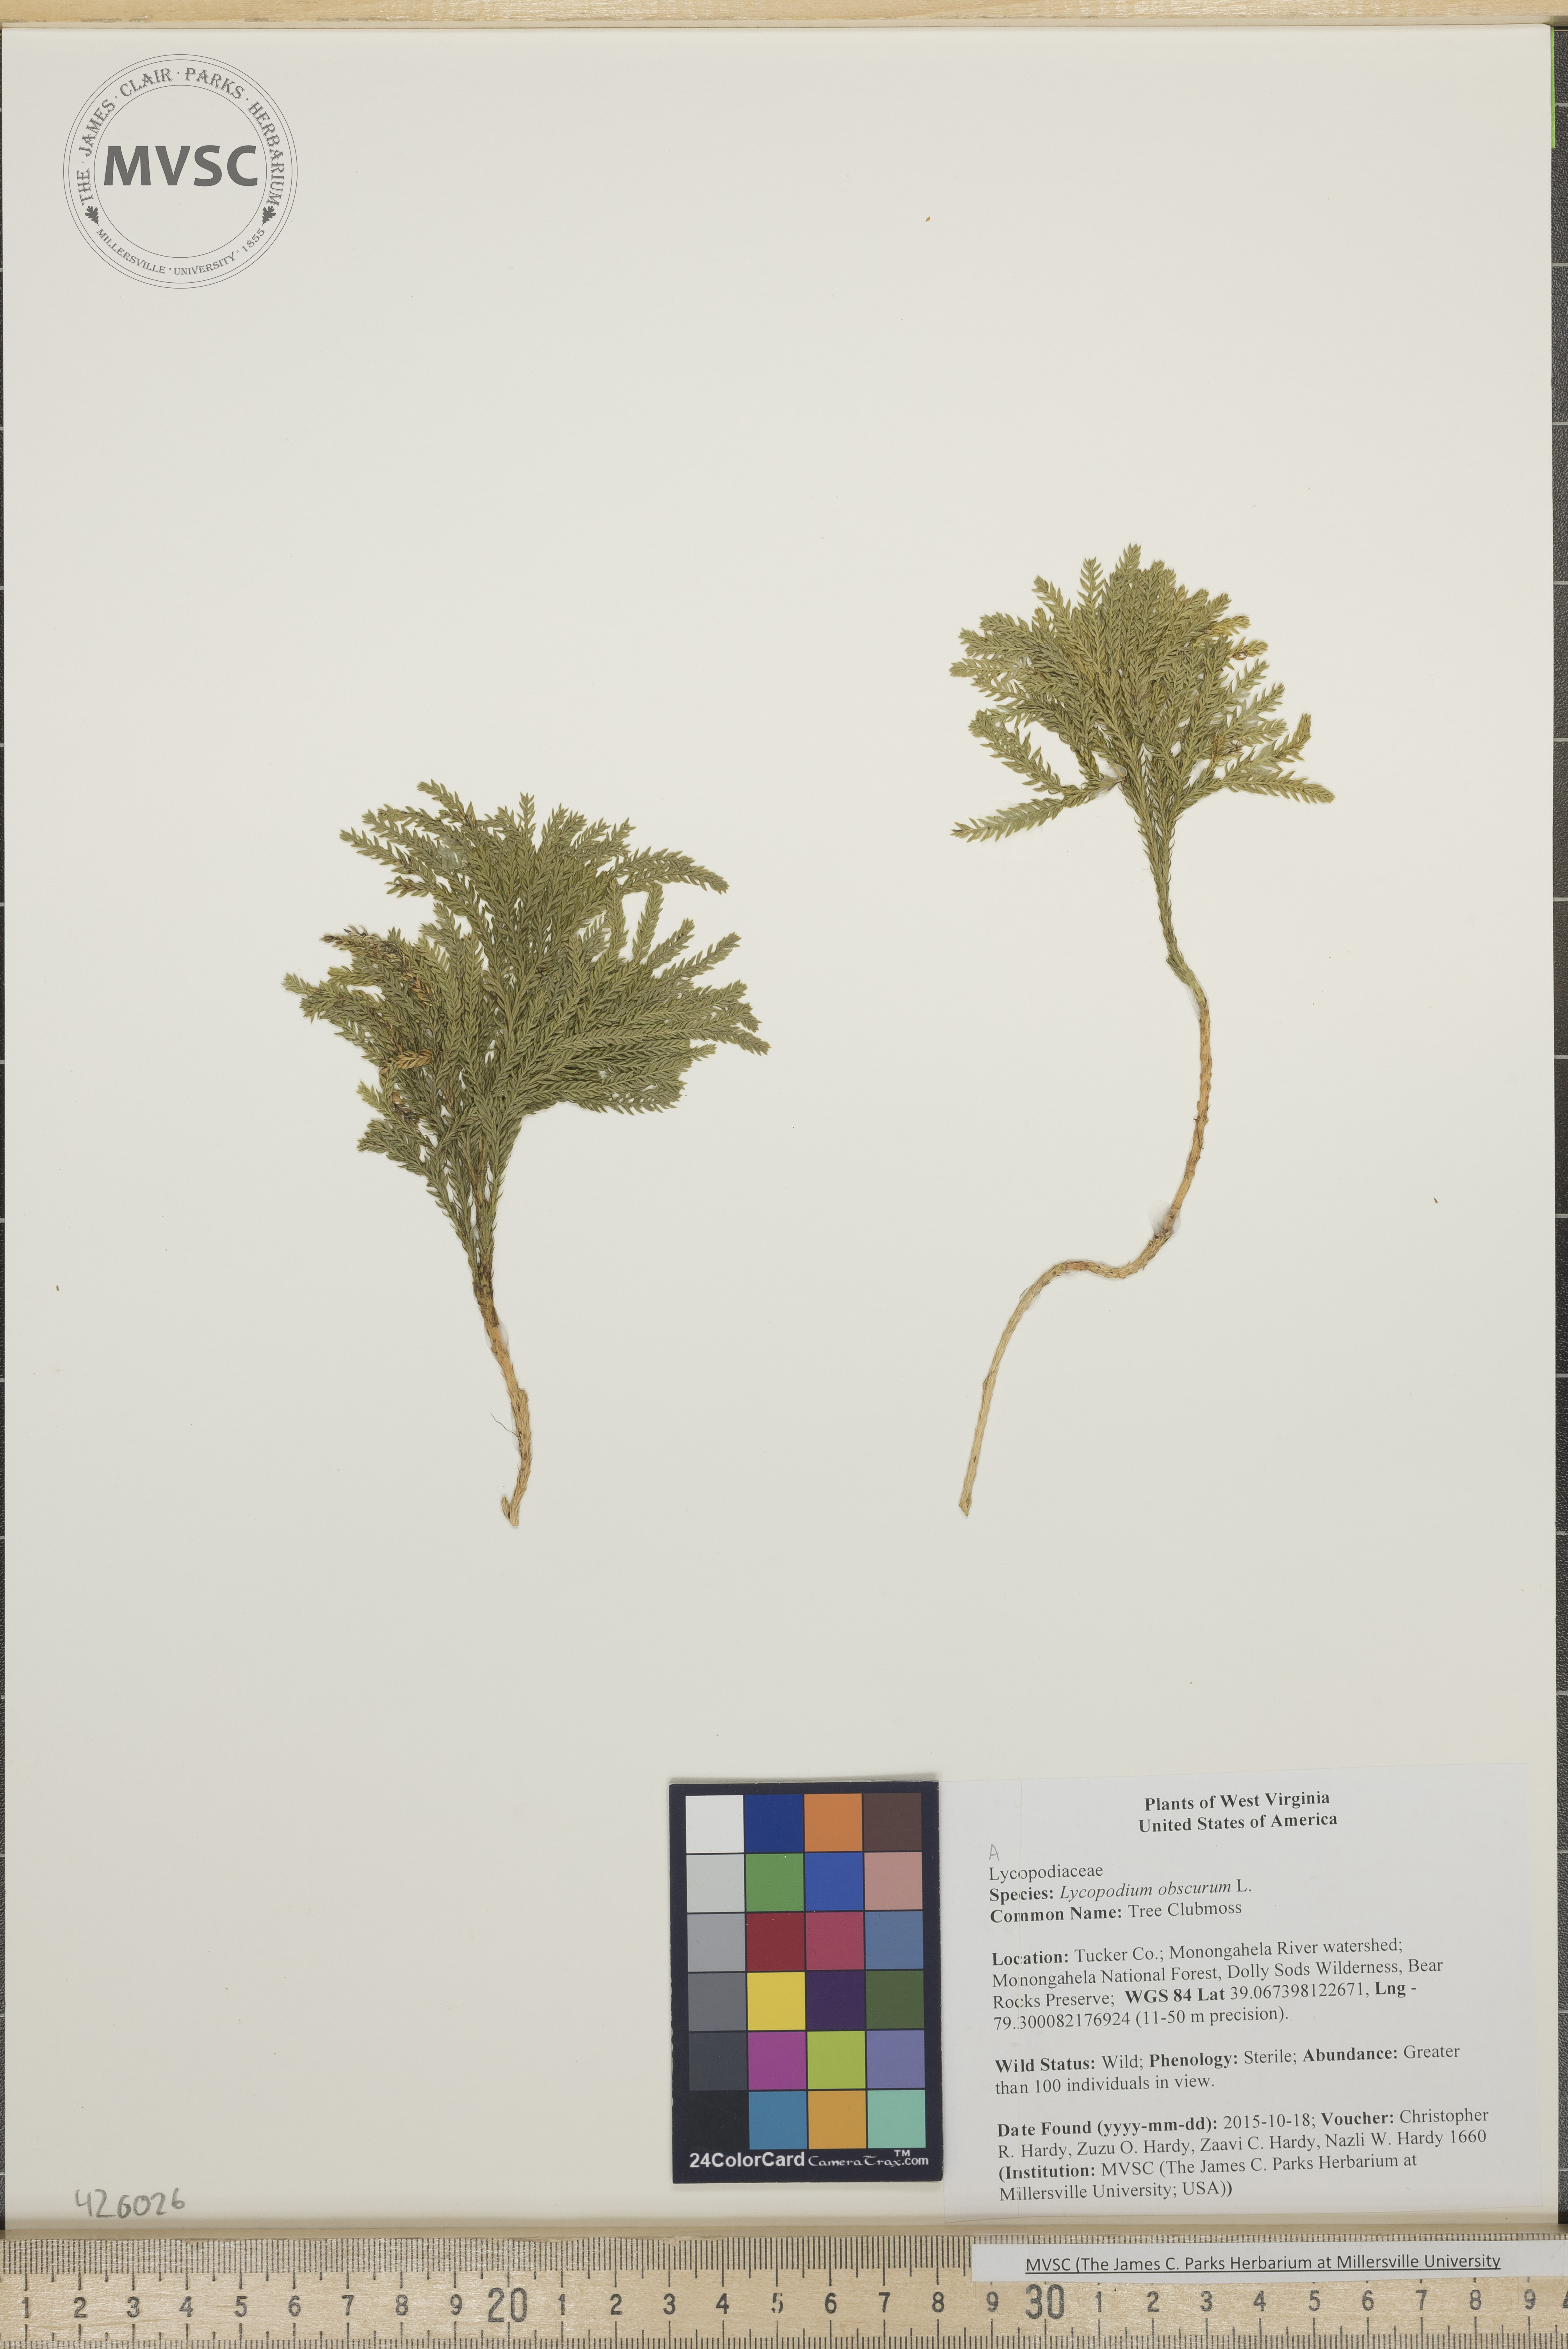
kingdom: Plantae
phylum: Tracheophyta
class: Lycopodiopsida
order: Lycopodiales
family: Lycopodiaceae
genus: Dendrolycopodium
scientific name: Dendrolycopodium obscurum
